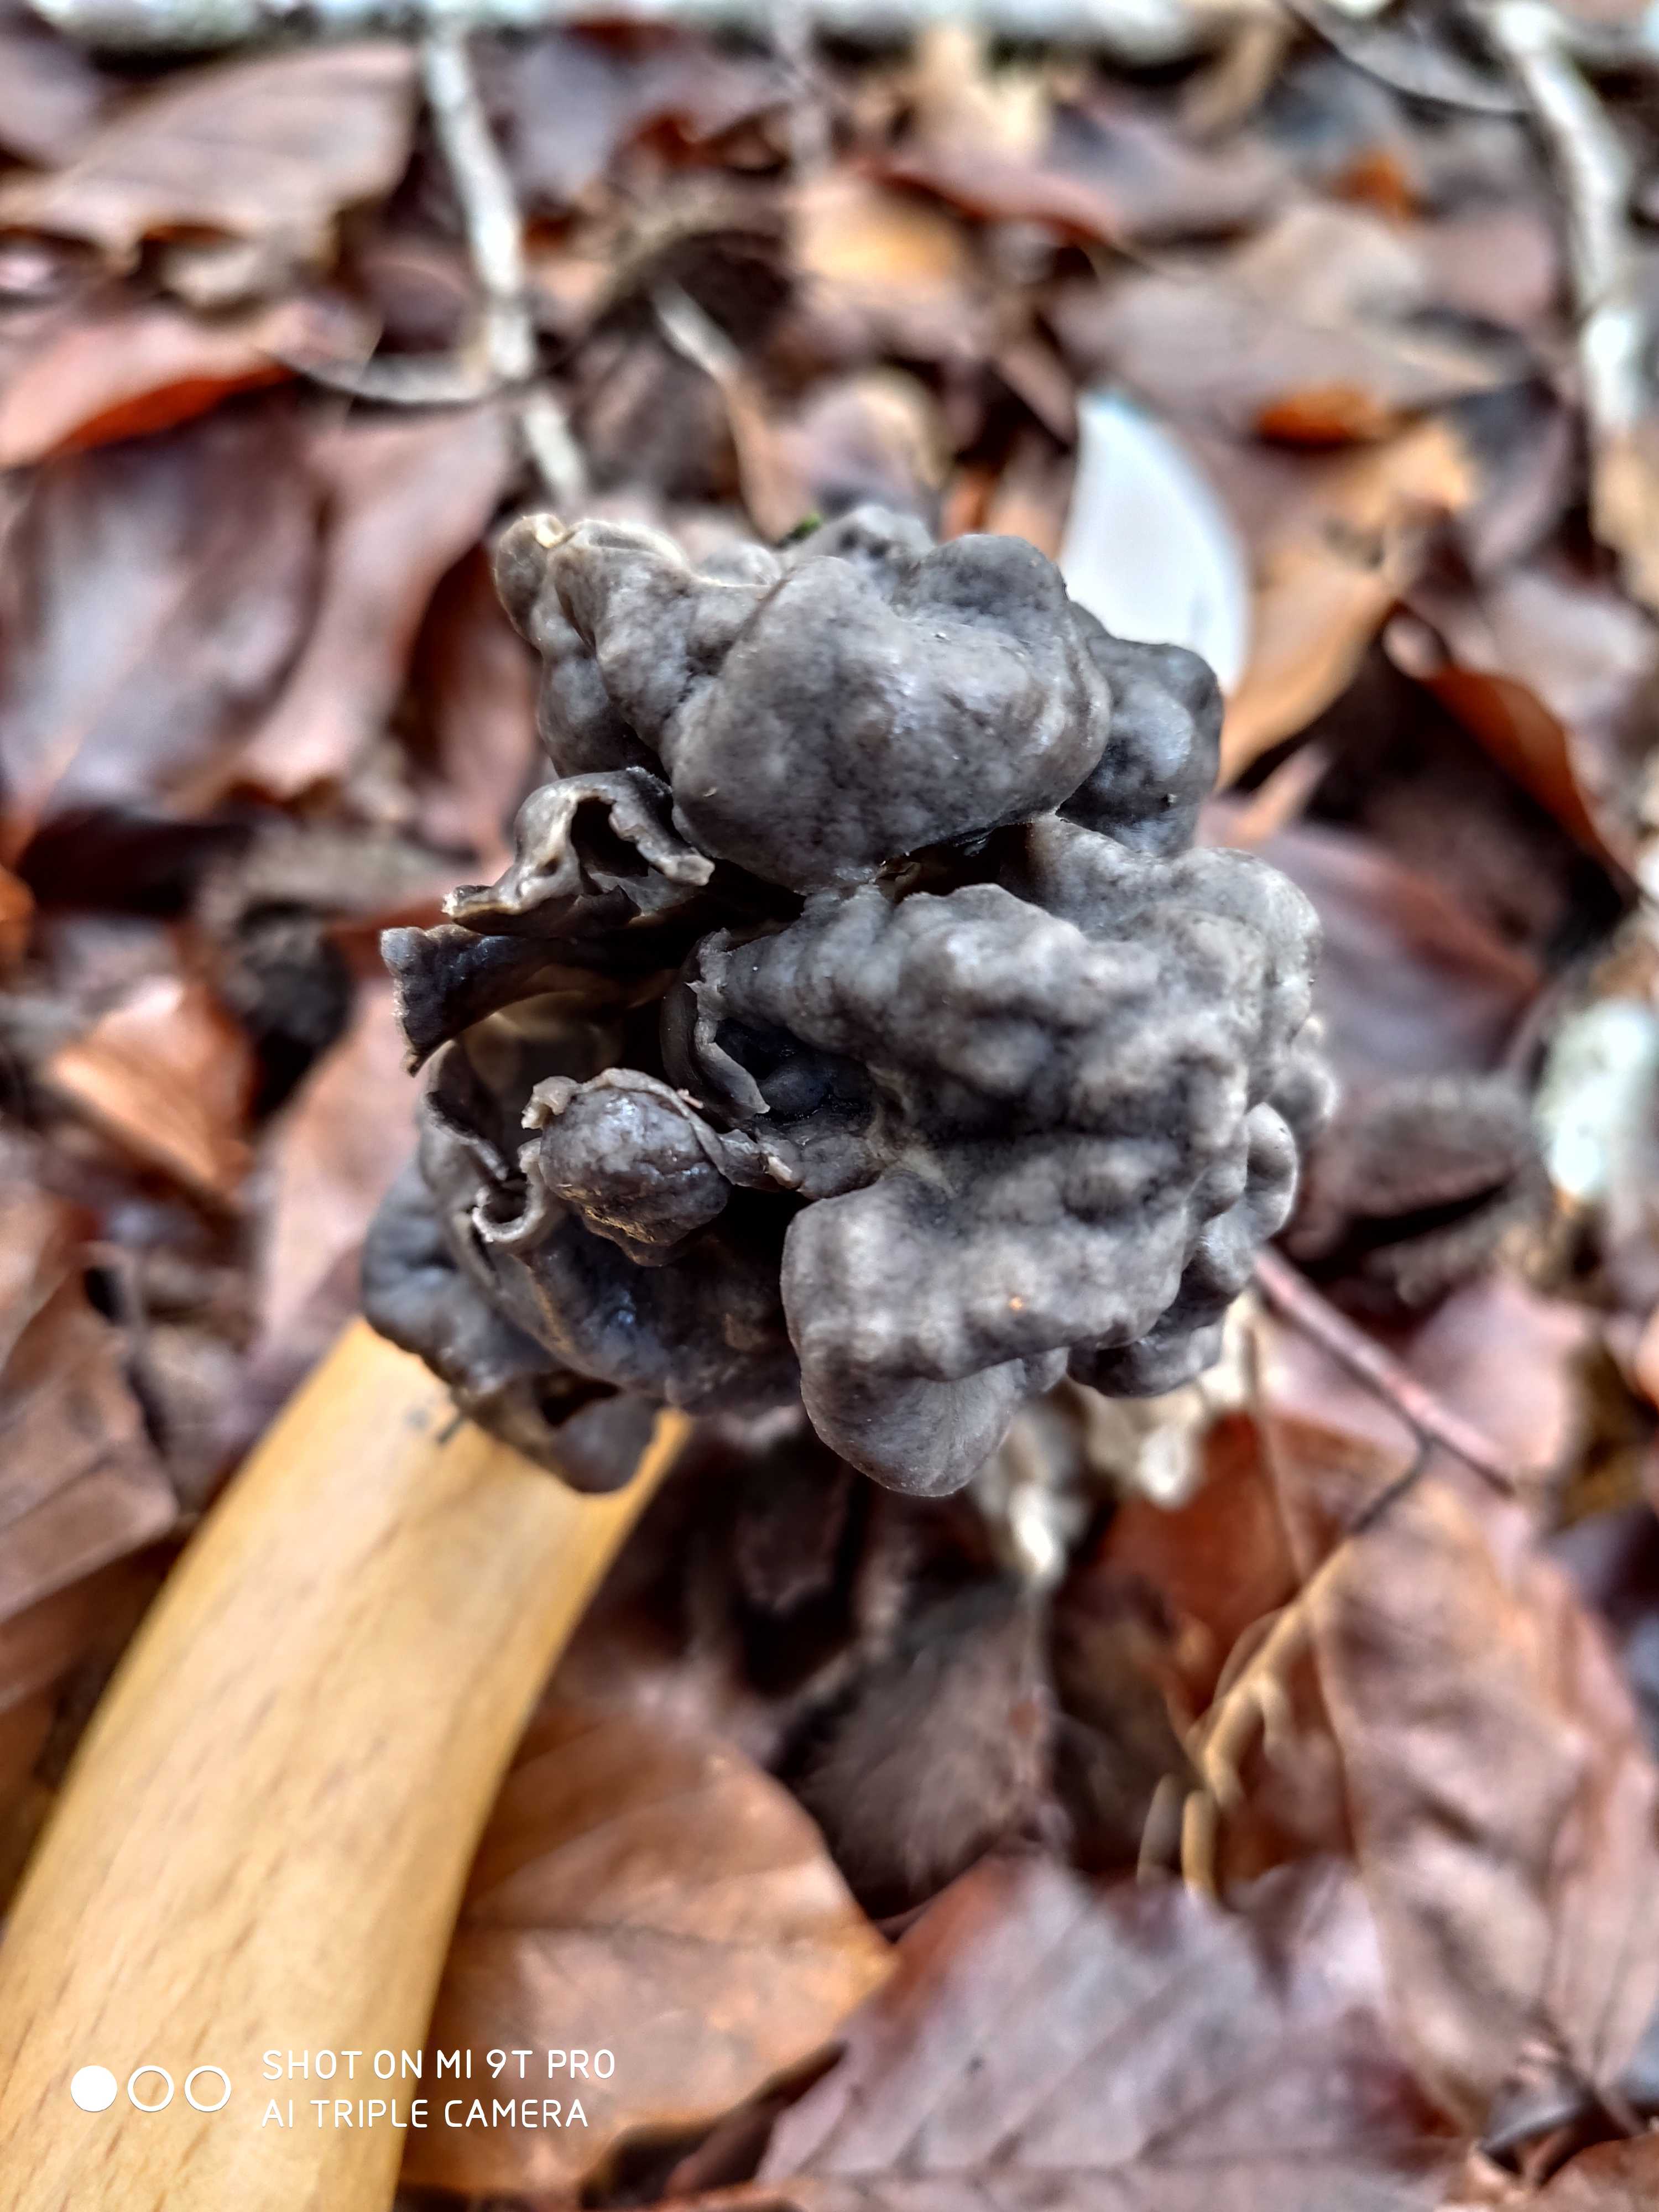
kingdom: Fungi
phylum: Ascomycota
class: Pezizomycetes
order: Pezizales
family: Helvellaceae
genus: Helvella
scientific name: Helvella lacunosa
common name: grubet foldhat
